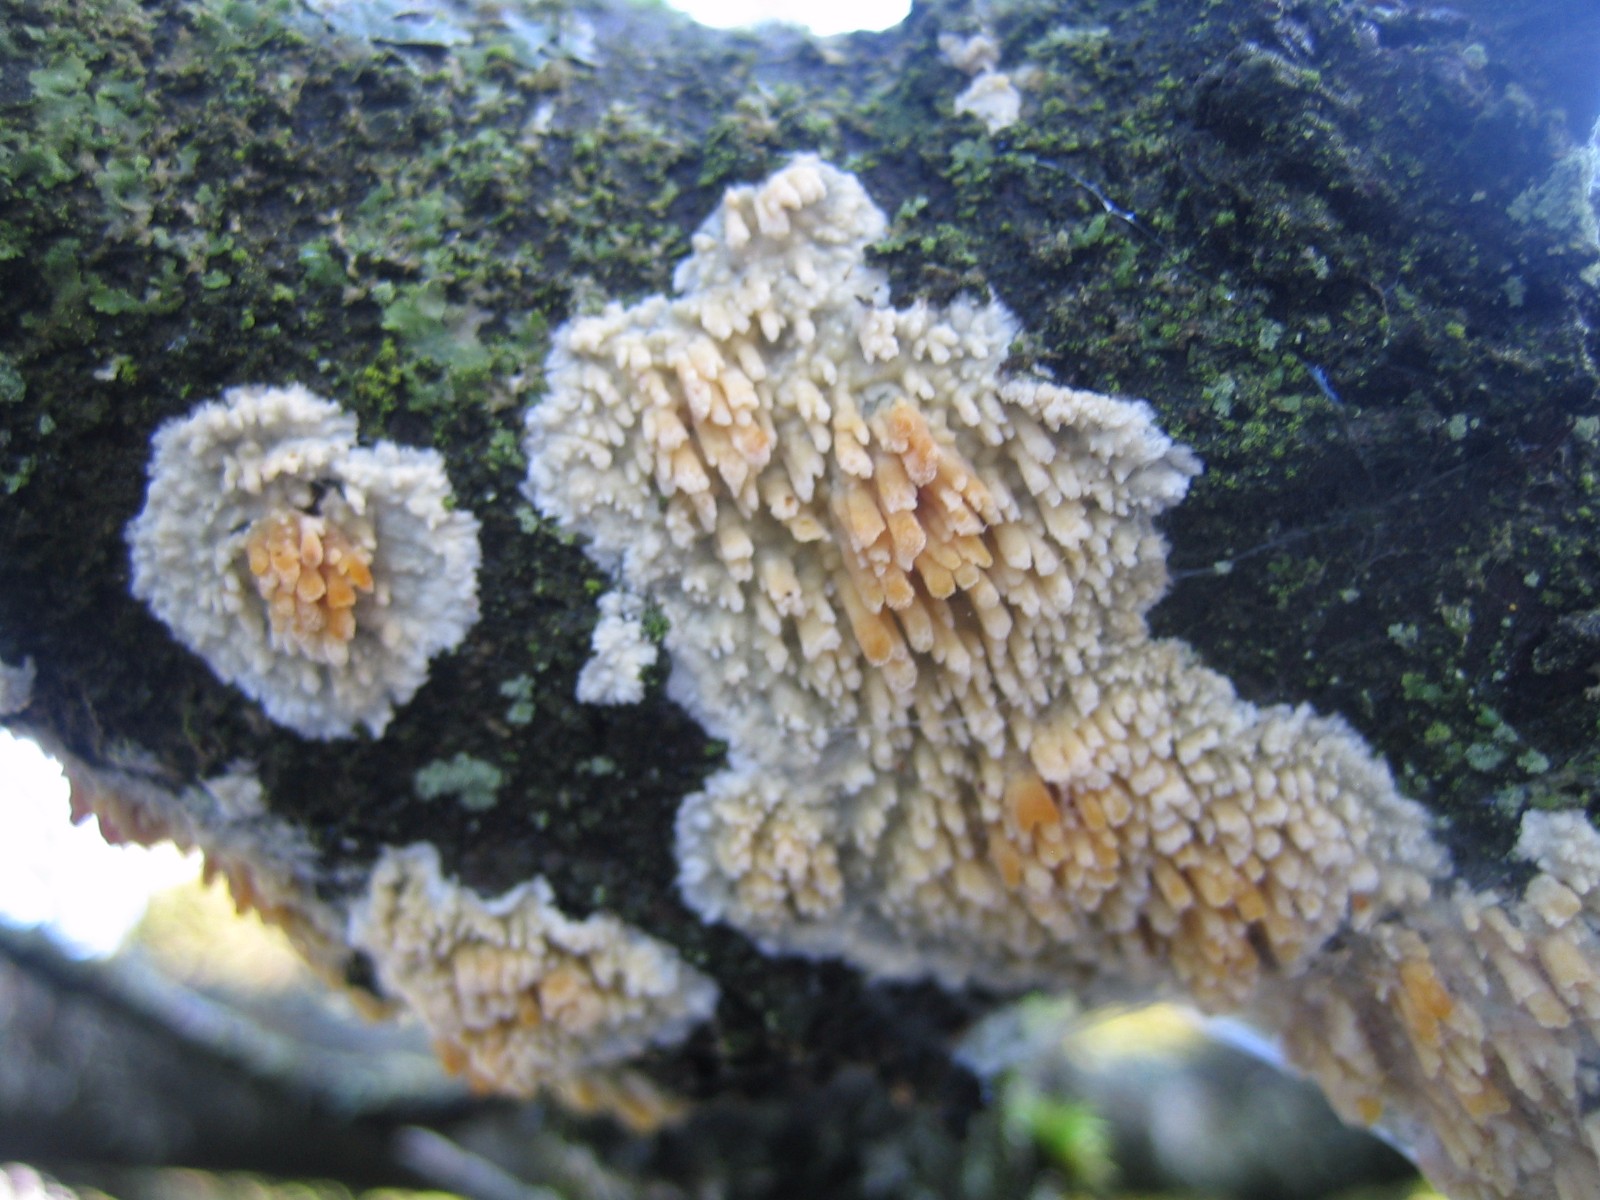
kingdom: Fungi
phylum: Basidiomycota
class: Agaricomycetes
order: Hymenochaetales
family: Schizoporaceae
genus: Xylodon
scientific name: Xylodon radula
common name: grovtandet kalkskind
